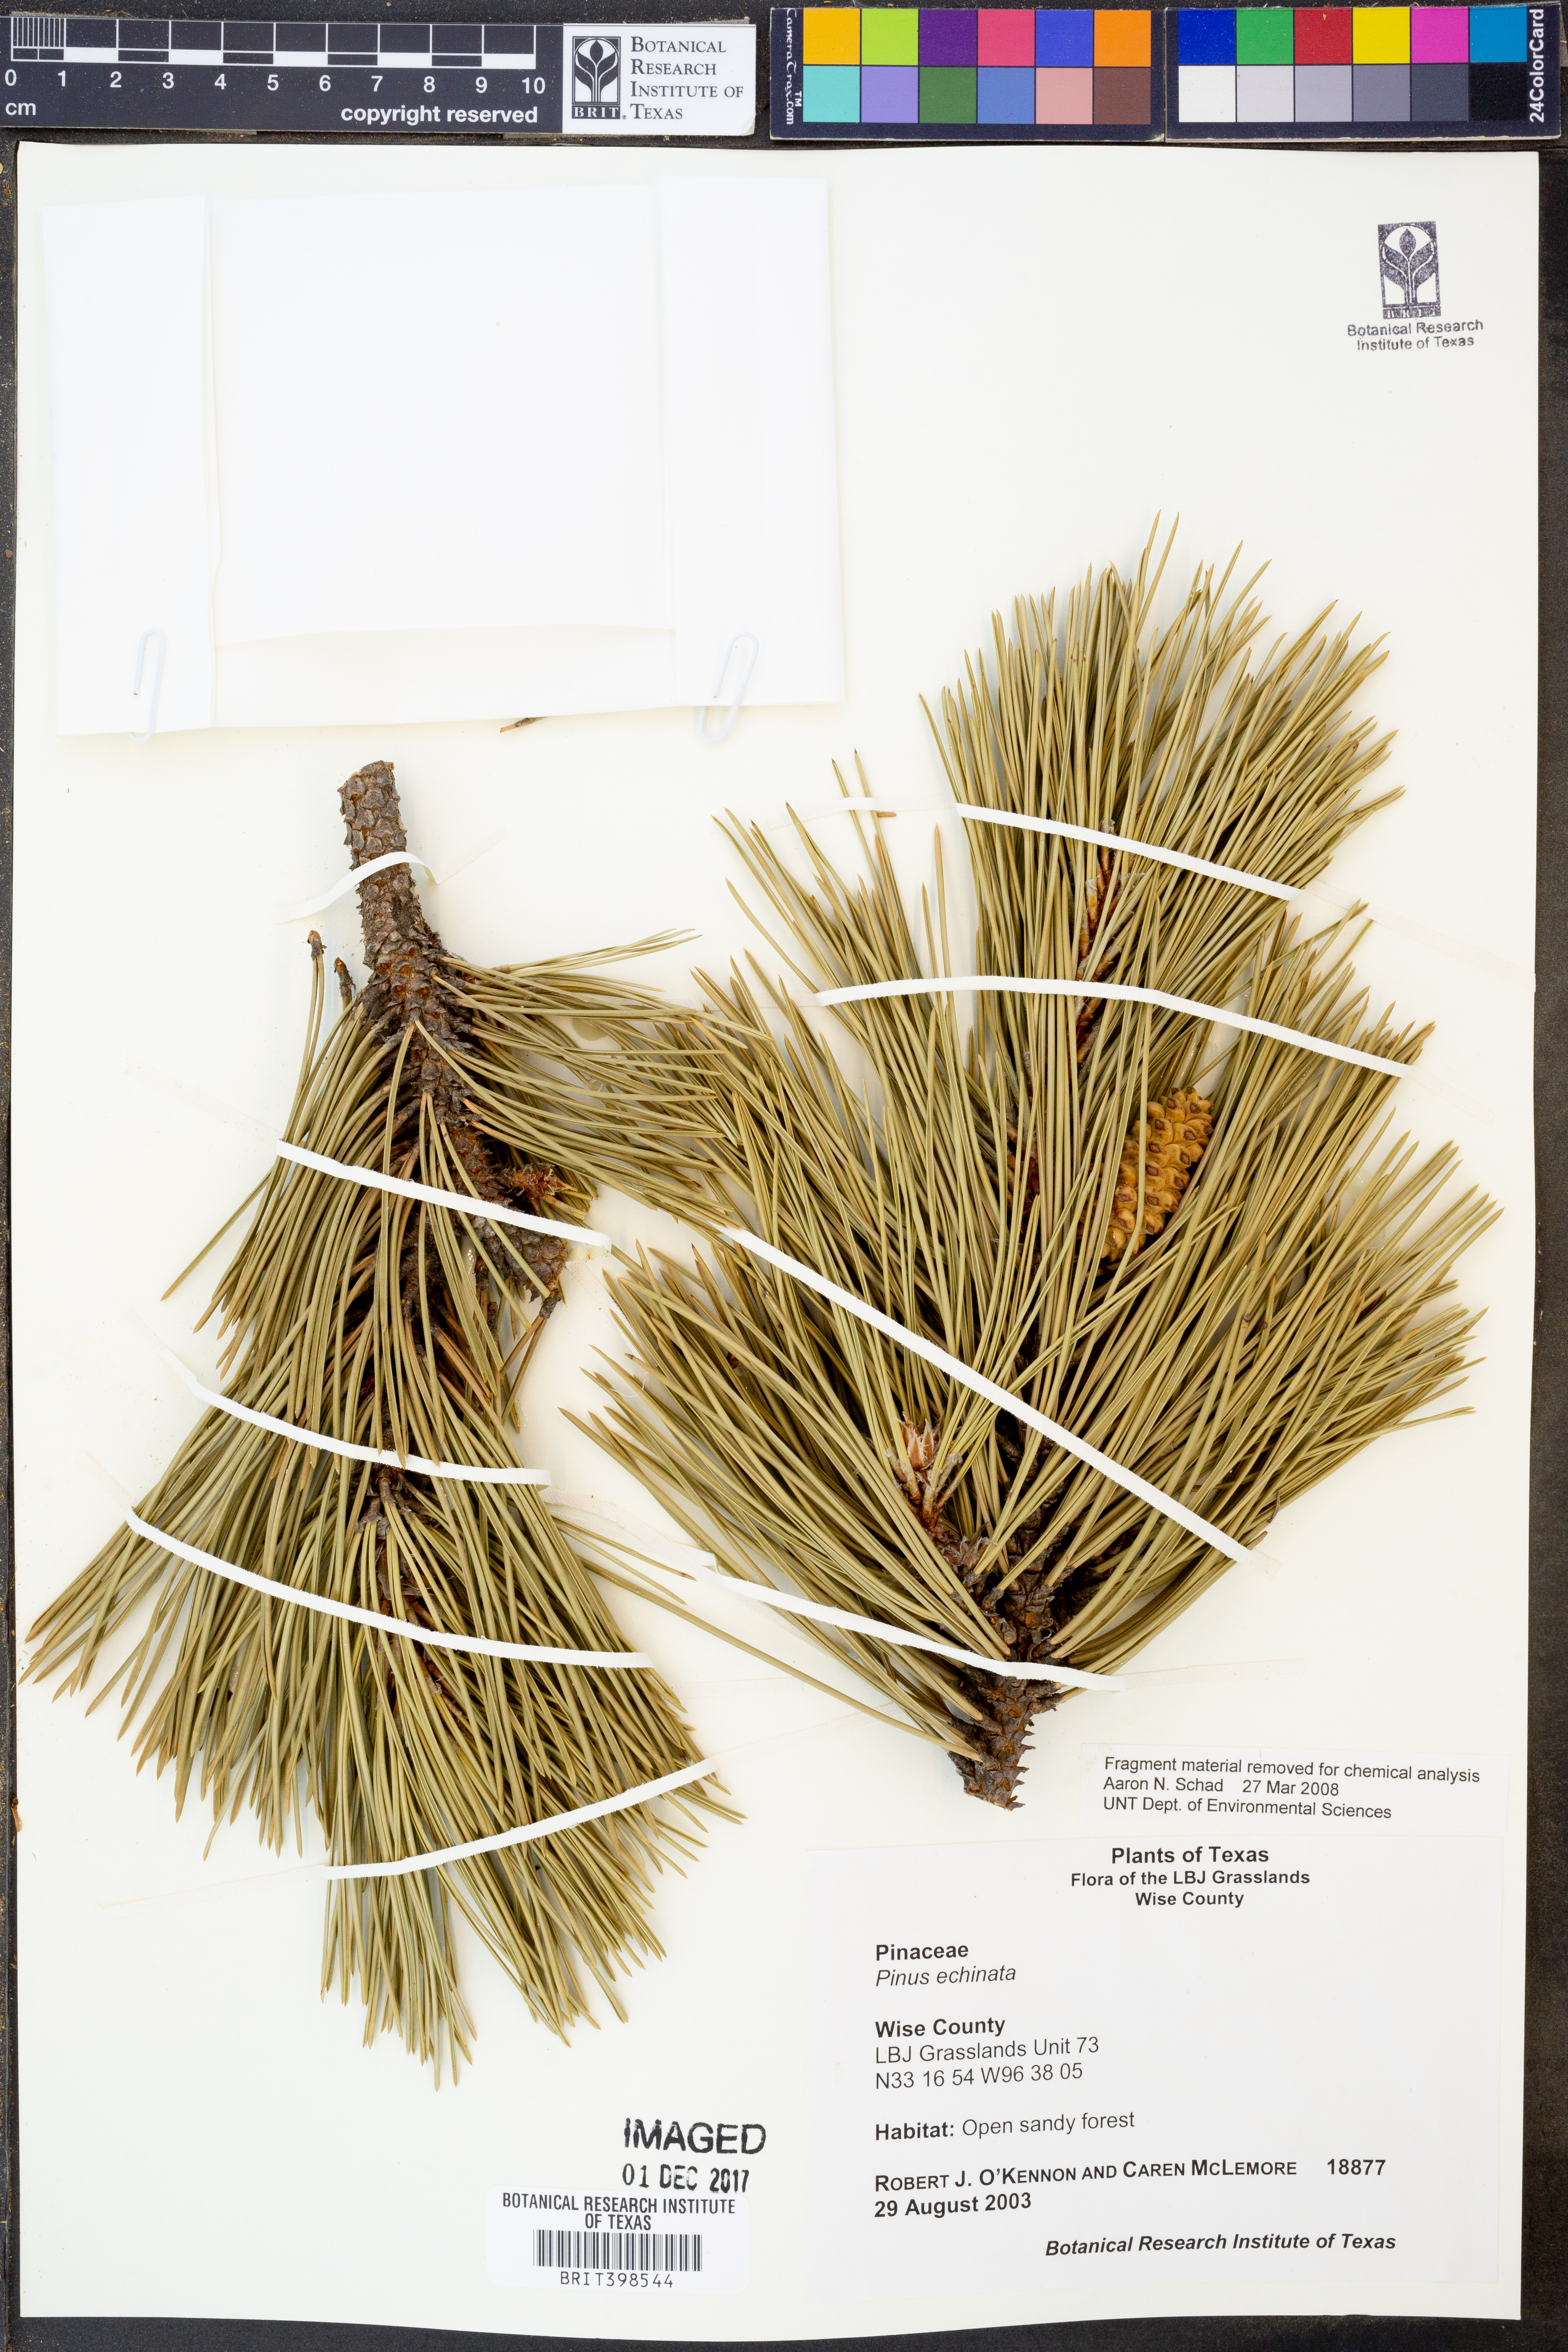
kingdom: Plantae
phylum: Tracheophyta
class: Pinopsida
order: Pinales
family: Pinaceae
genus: Pinus
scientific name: Pinus echinata
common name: Shortleaf pine
